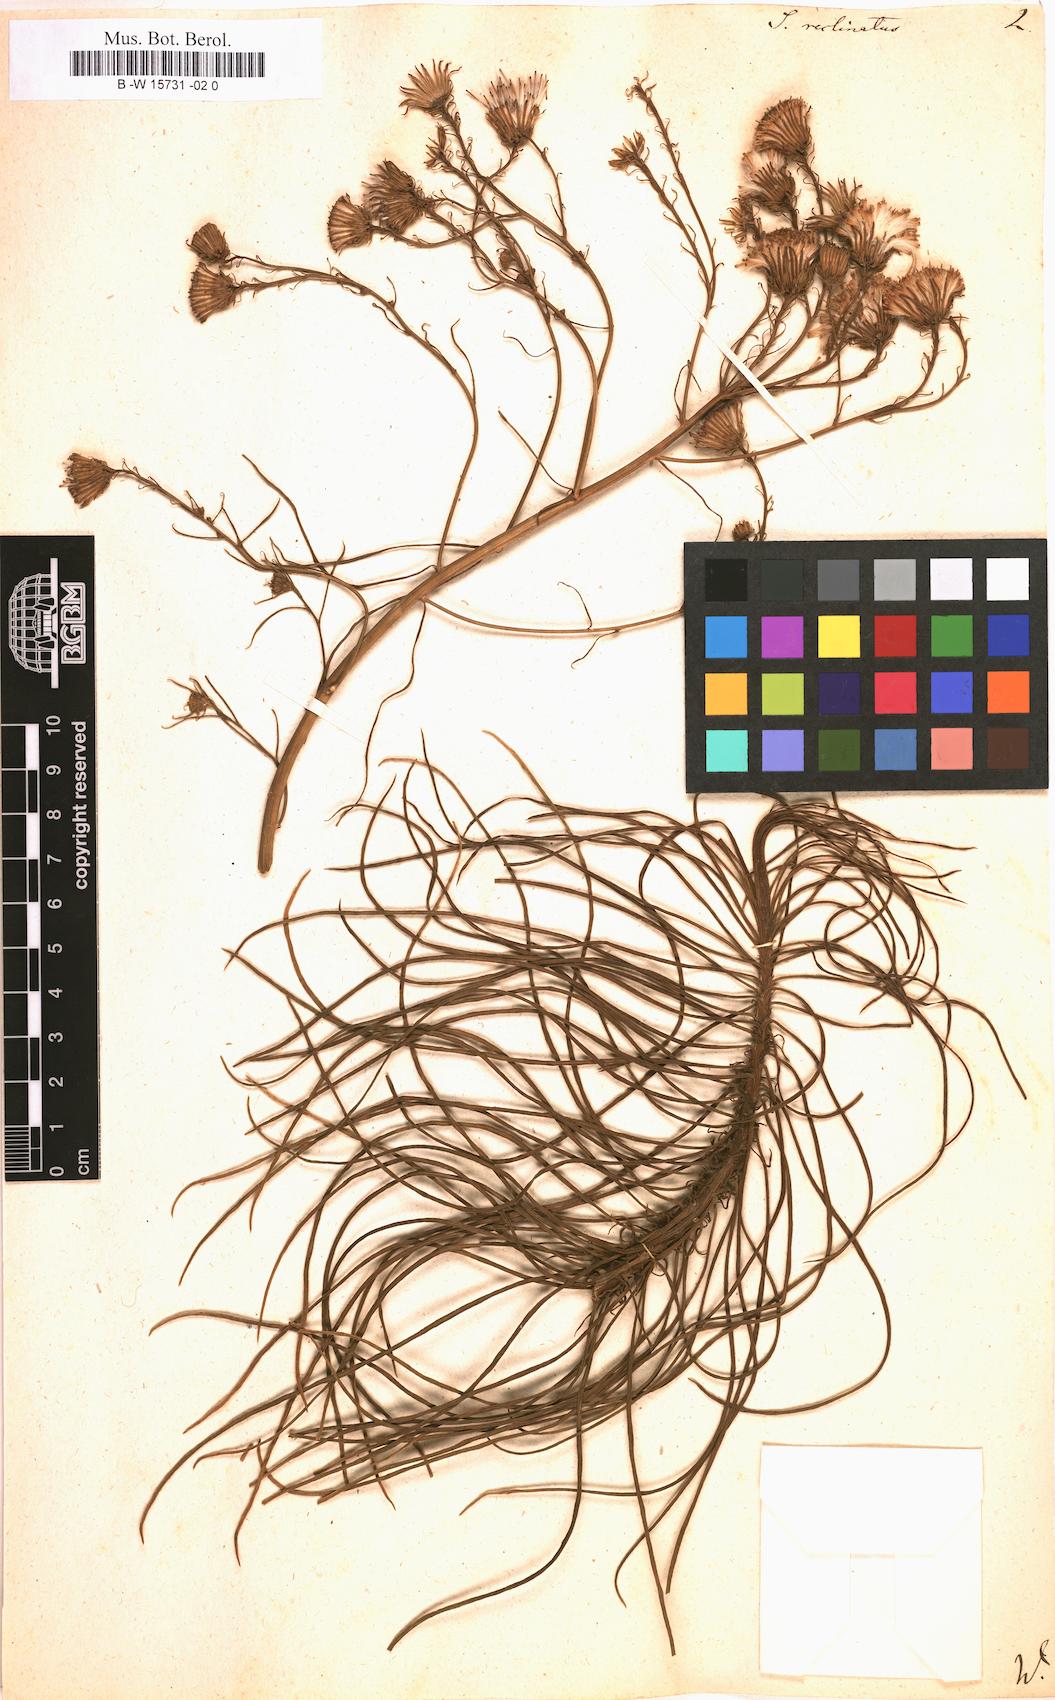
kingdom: Plantae
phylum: Tracheophyta
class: Magnoliopsida
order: Asterales
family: Asteraceae
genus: Senecio
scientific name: Senecio chrysocoma
